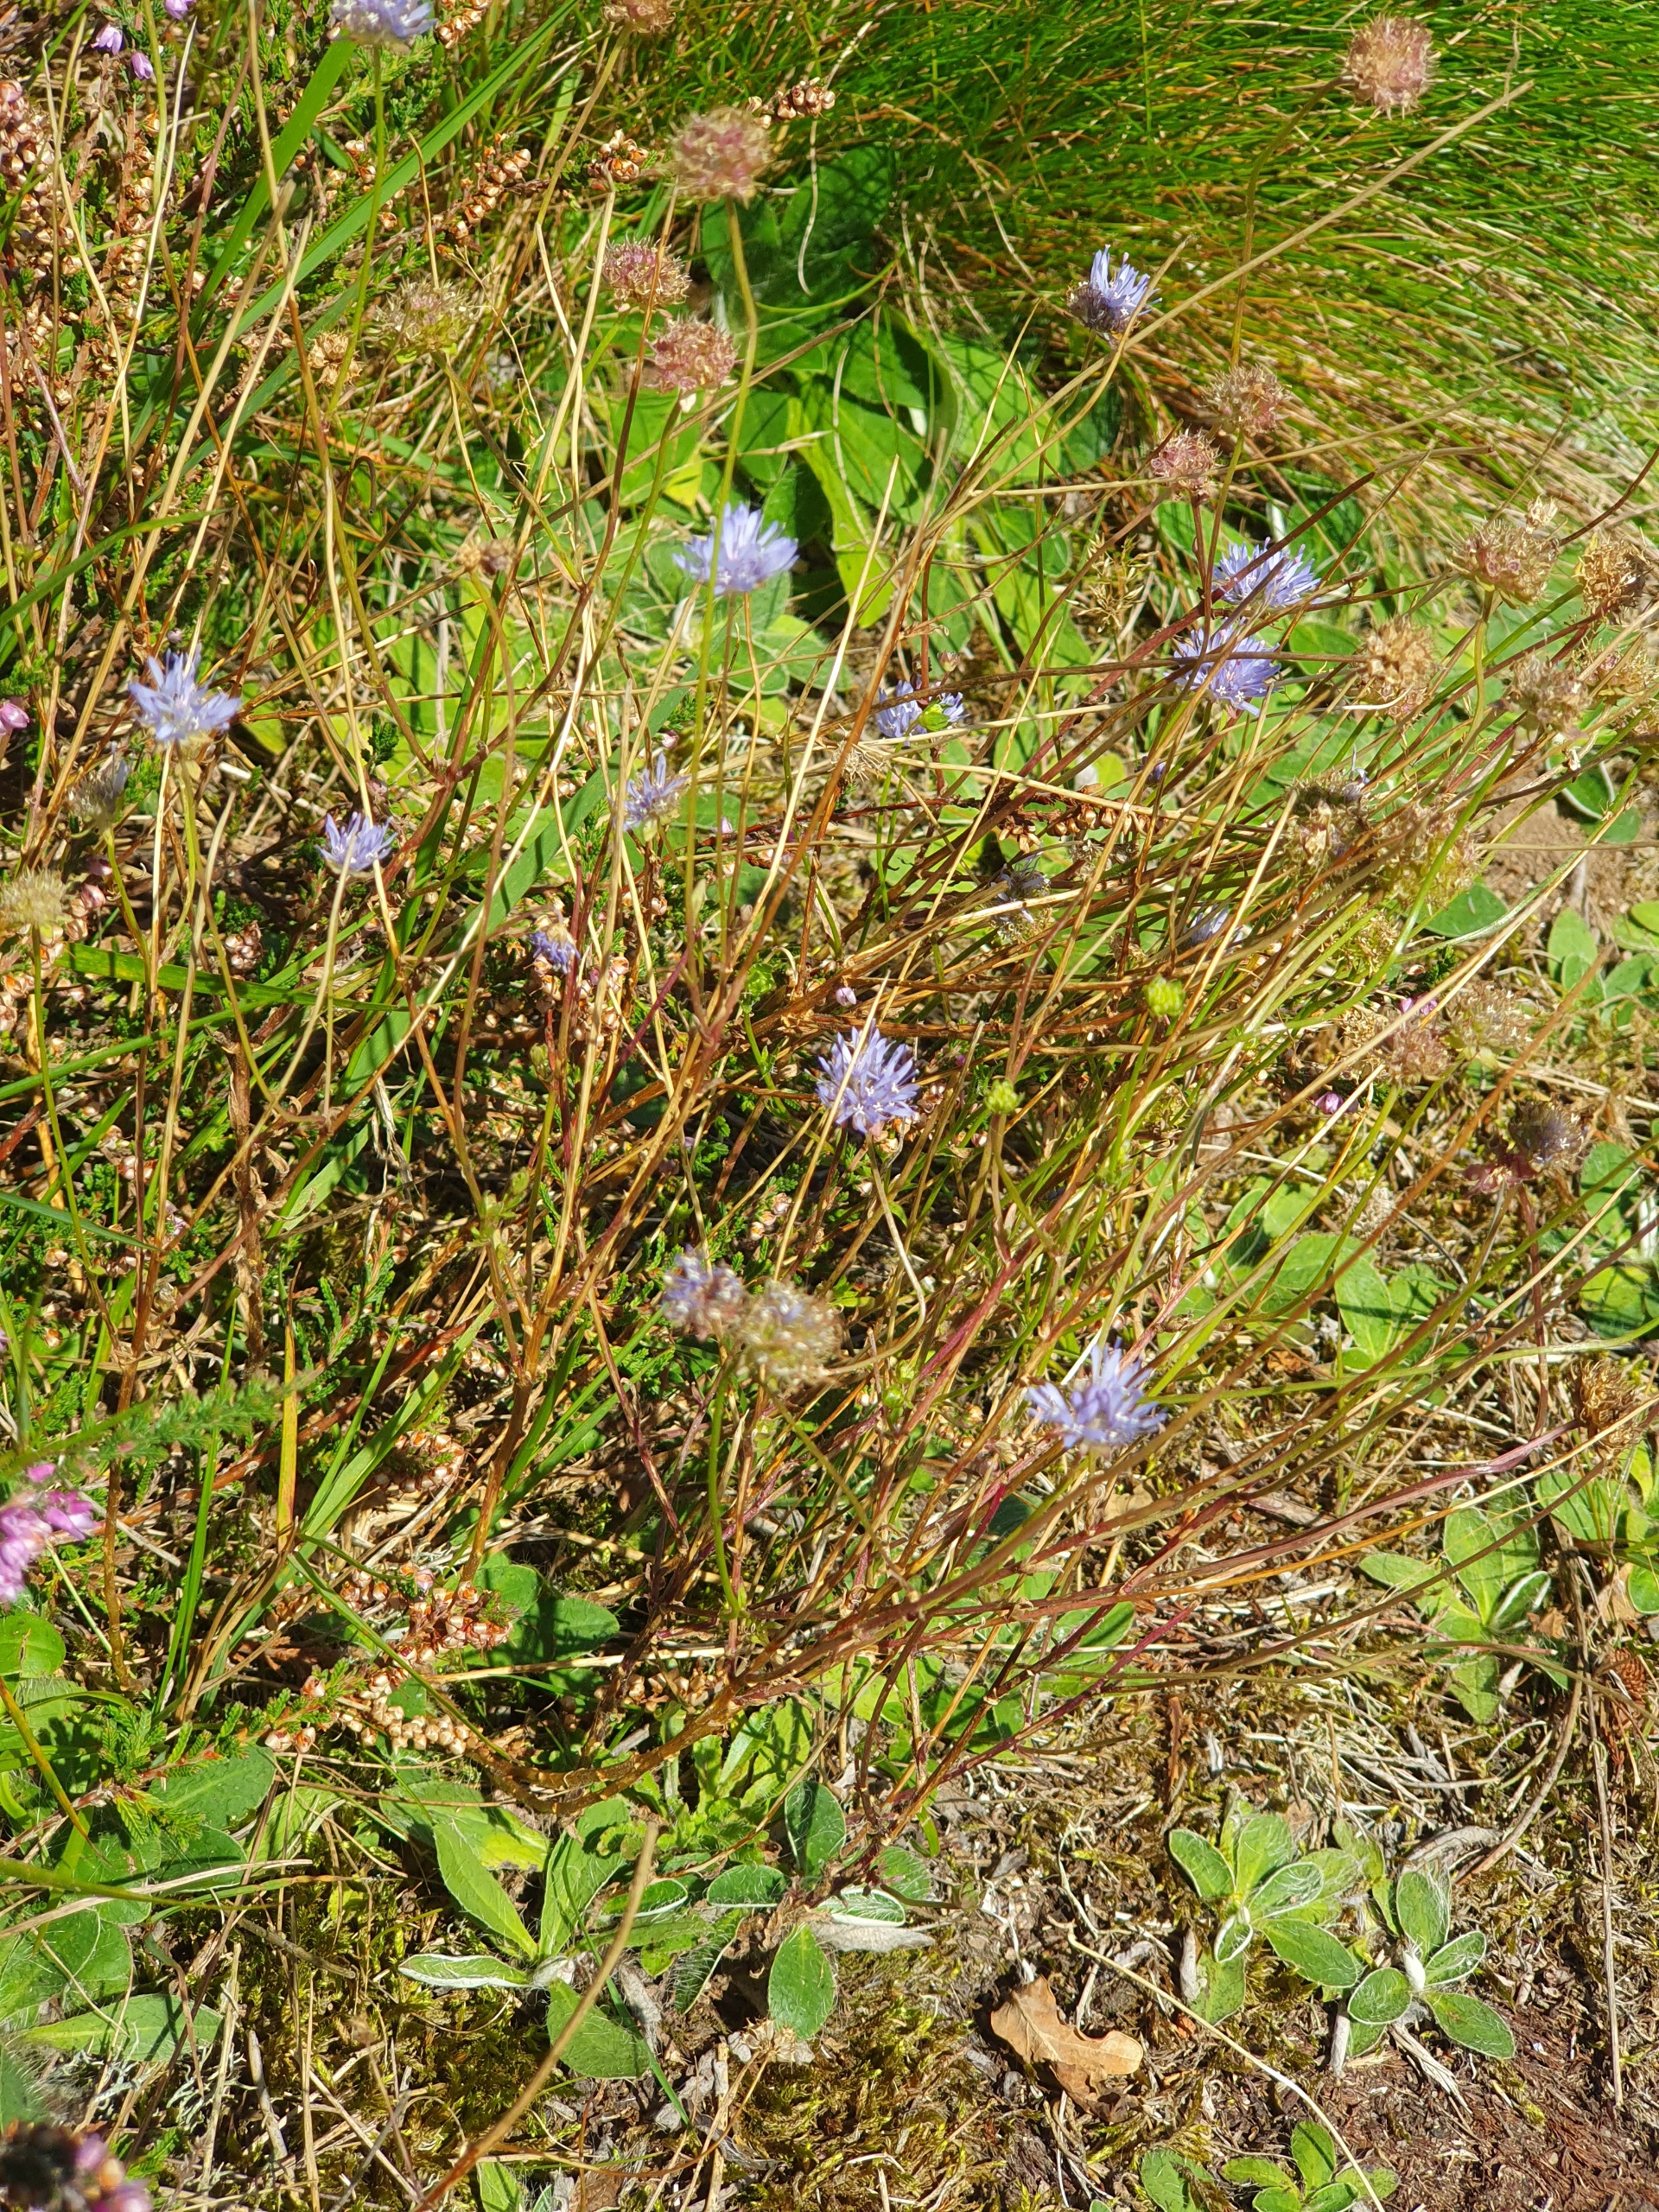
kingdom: Plantae
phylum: Tracheophyta
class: Magnoliopsida
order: Asterales
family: Campanulaceae
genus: Jasione
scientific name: Jasione montana
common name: Blåmunke
